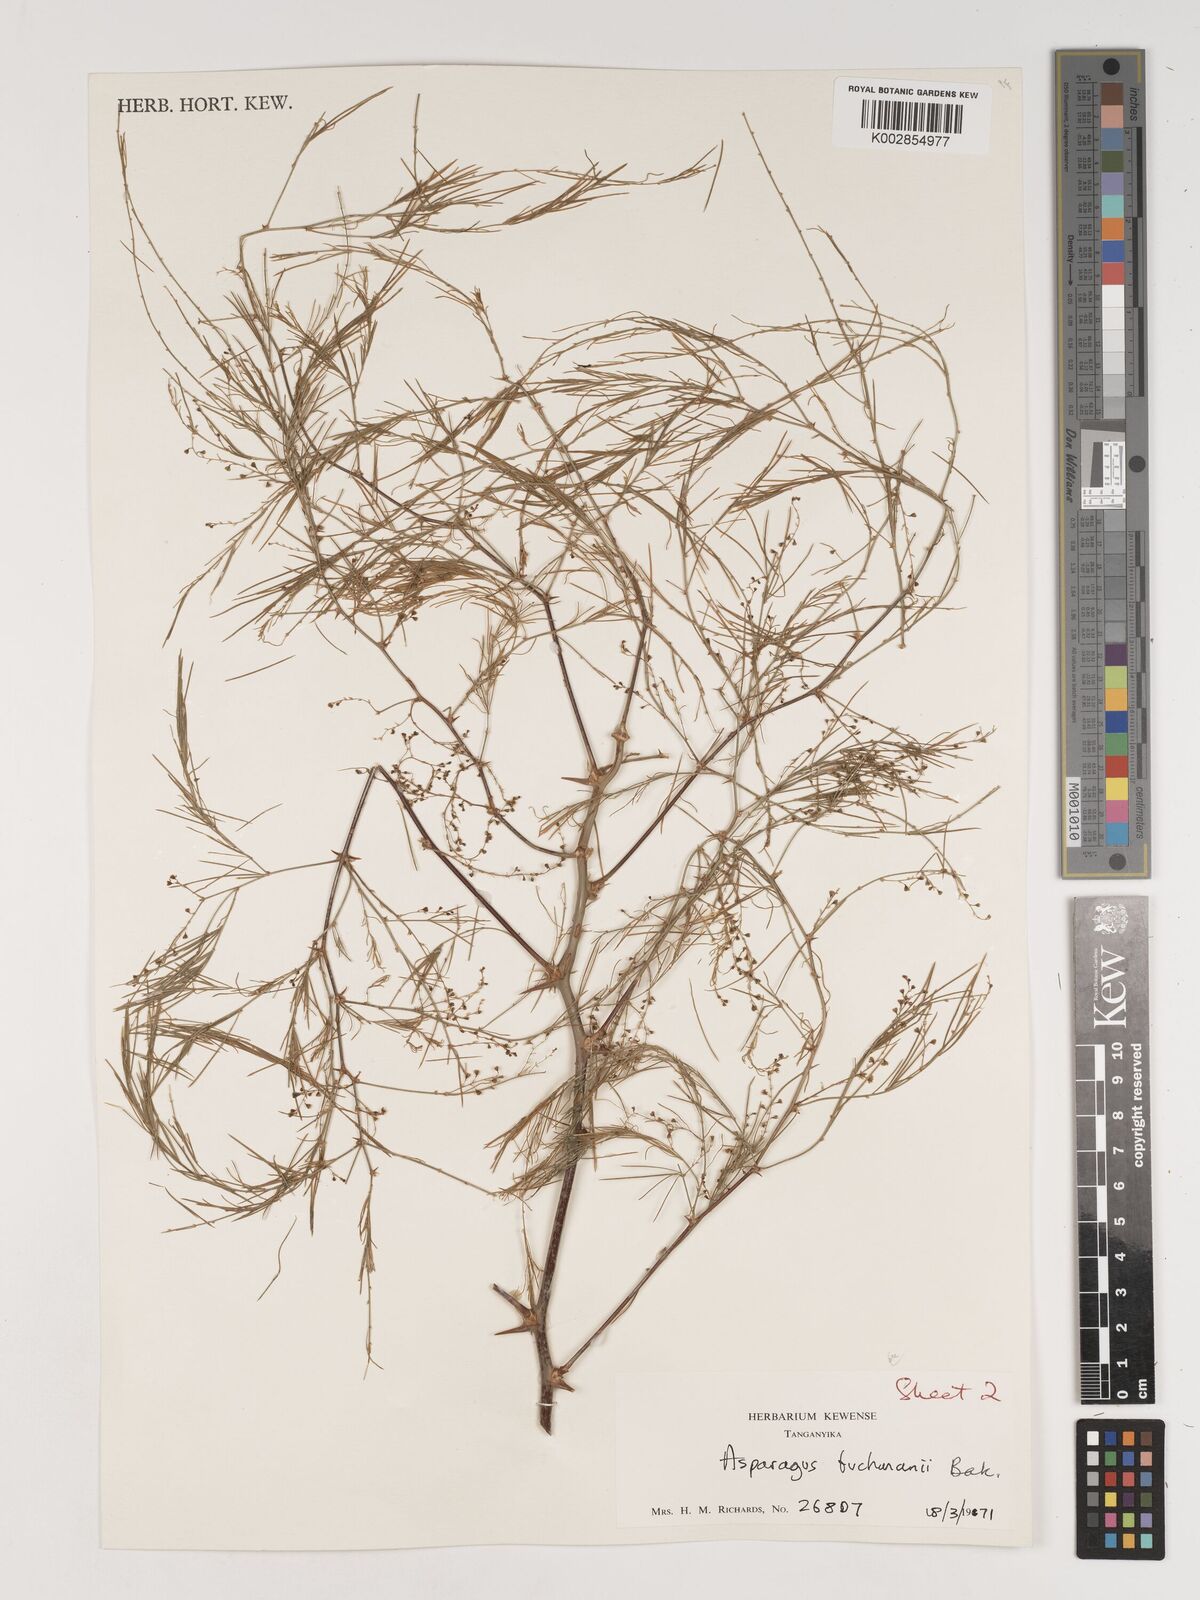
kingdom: Plantae
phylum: Tracheophyta
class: Liliopsida
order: Asparagales
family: Asparagaceae
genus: Asparagus
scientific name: Asparagus buchananii
